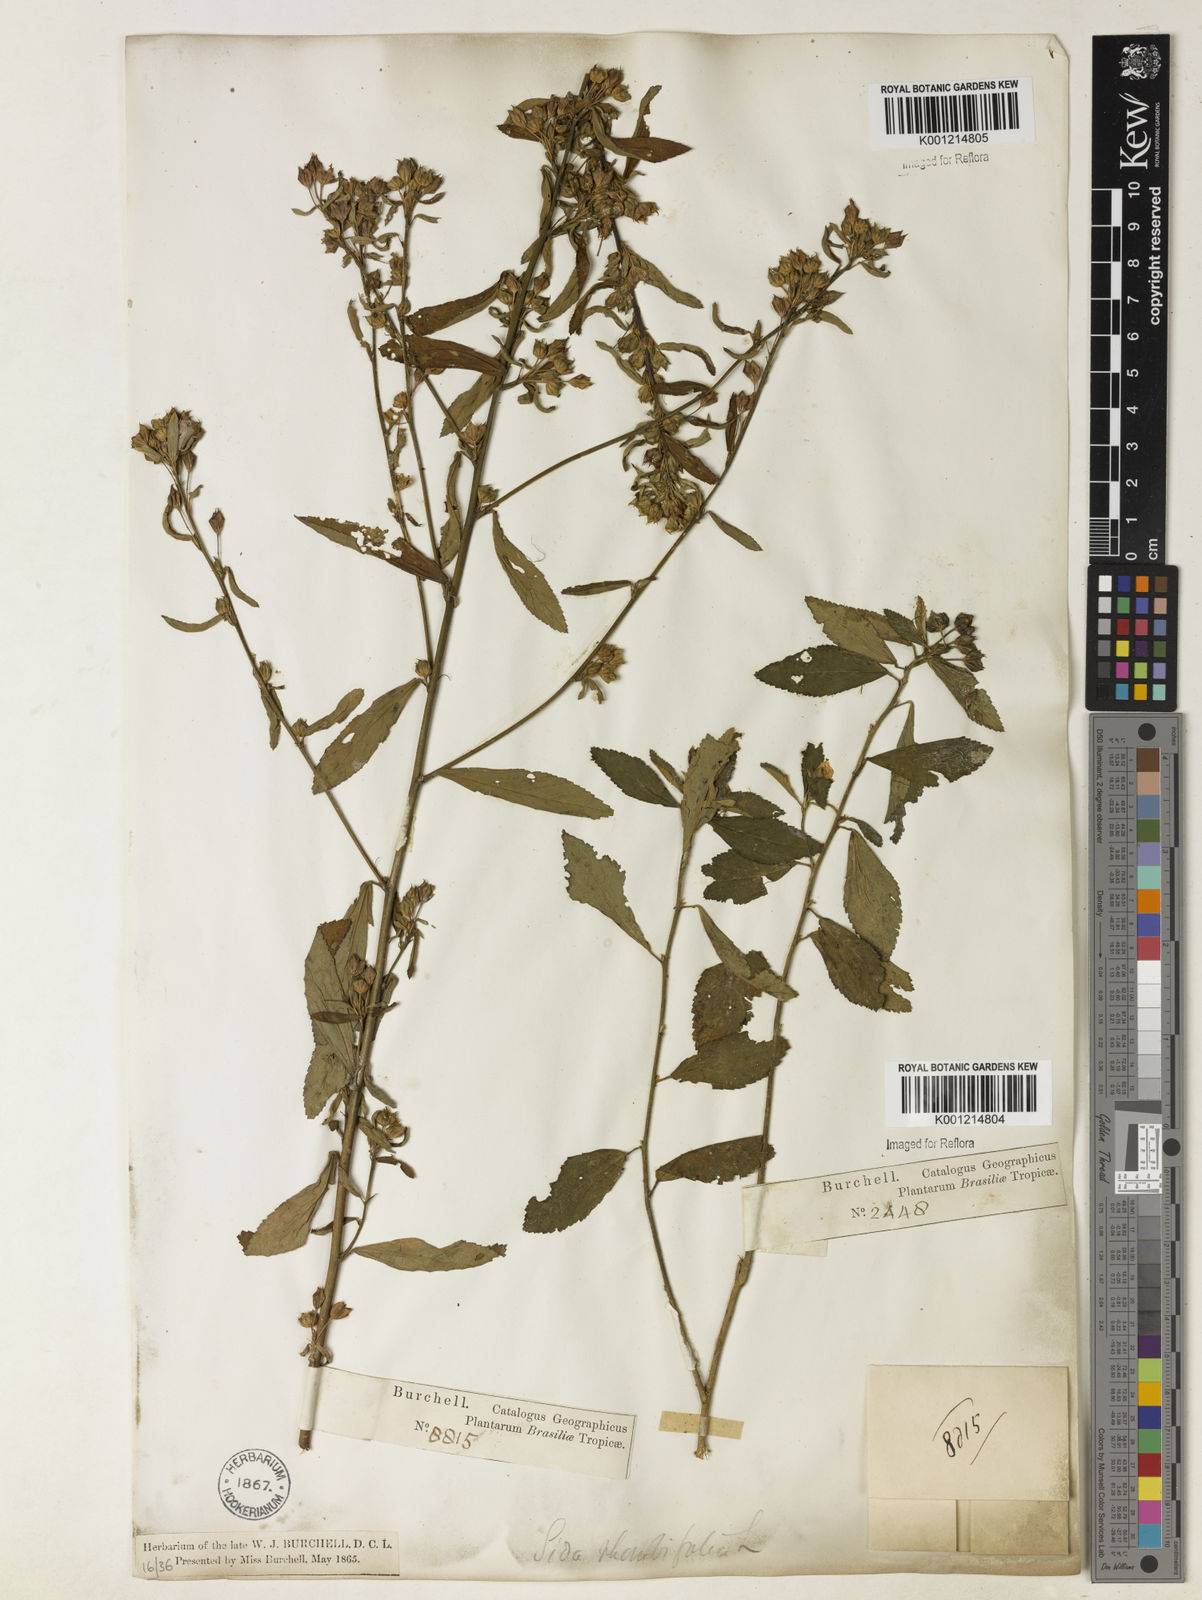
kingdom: Plantae
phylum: Tracheophyta
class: Magnoliopsida
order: Malvales
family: Malvaceae
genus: Sida
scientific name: Sida rhombifolia
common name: Queensland-hemp
